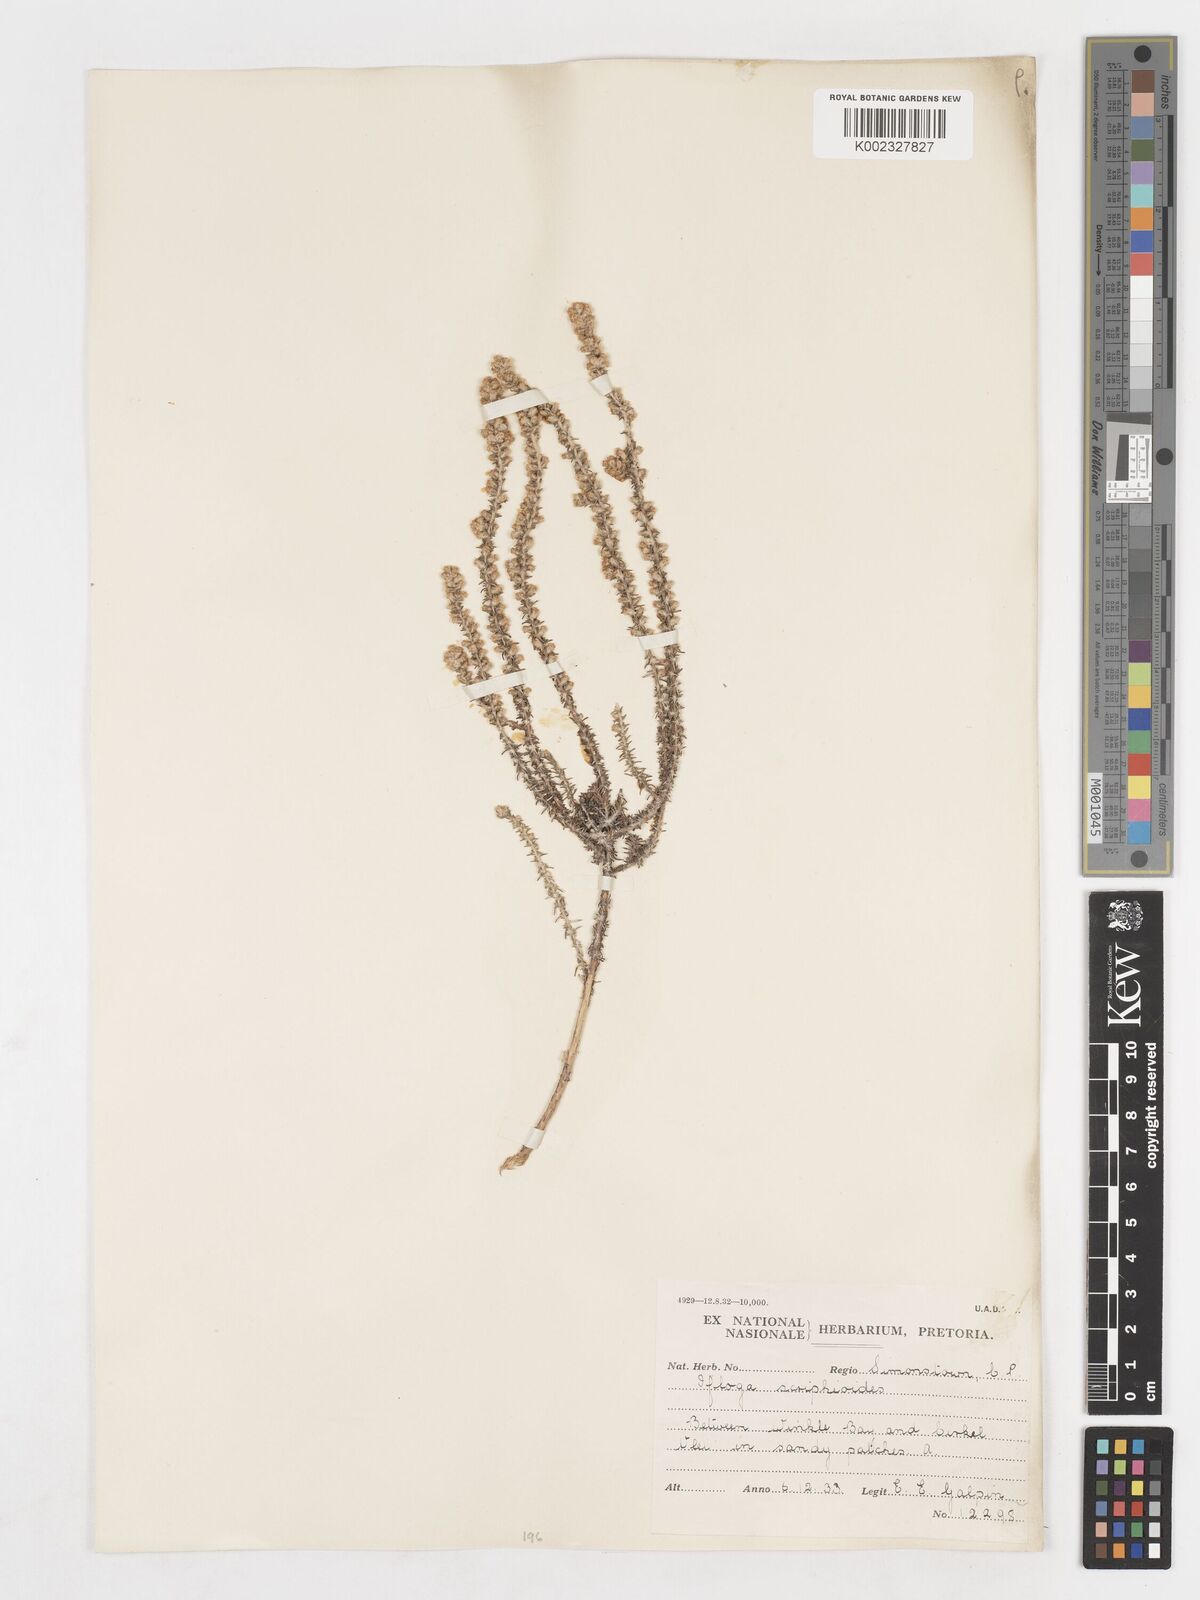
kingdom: Plantae
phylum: Tracheophyta
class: Magnoliopsida
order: Asterales
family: Asteraceae
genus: Ifloga
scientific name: Ifloga ambigua
